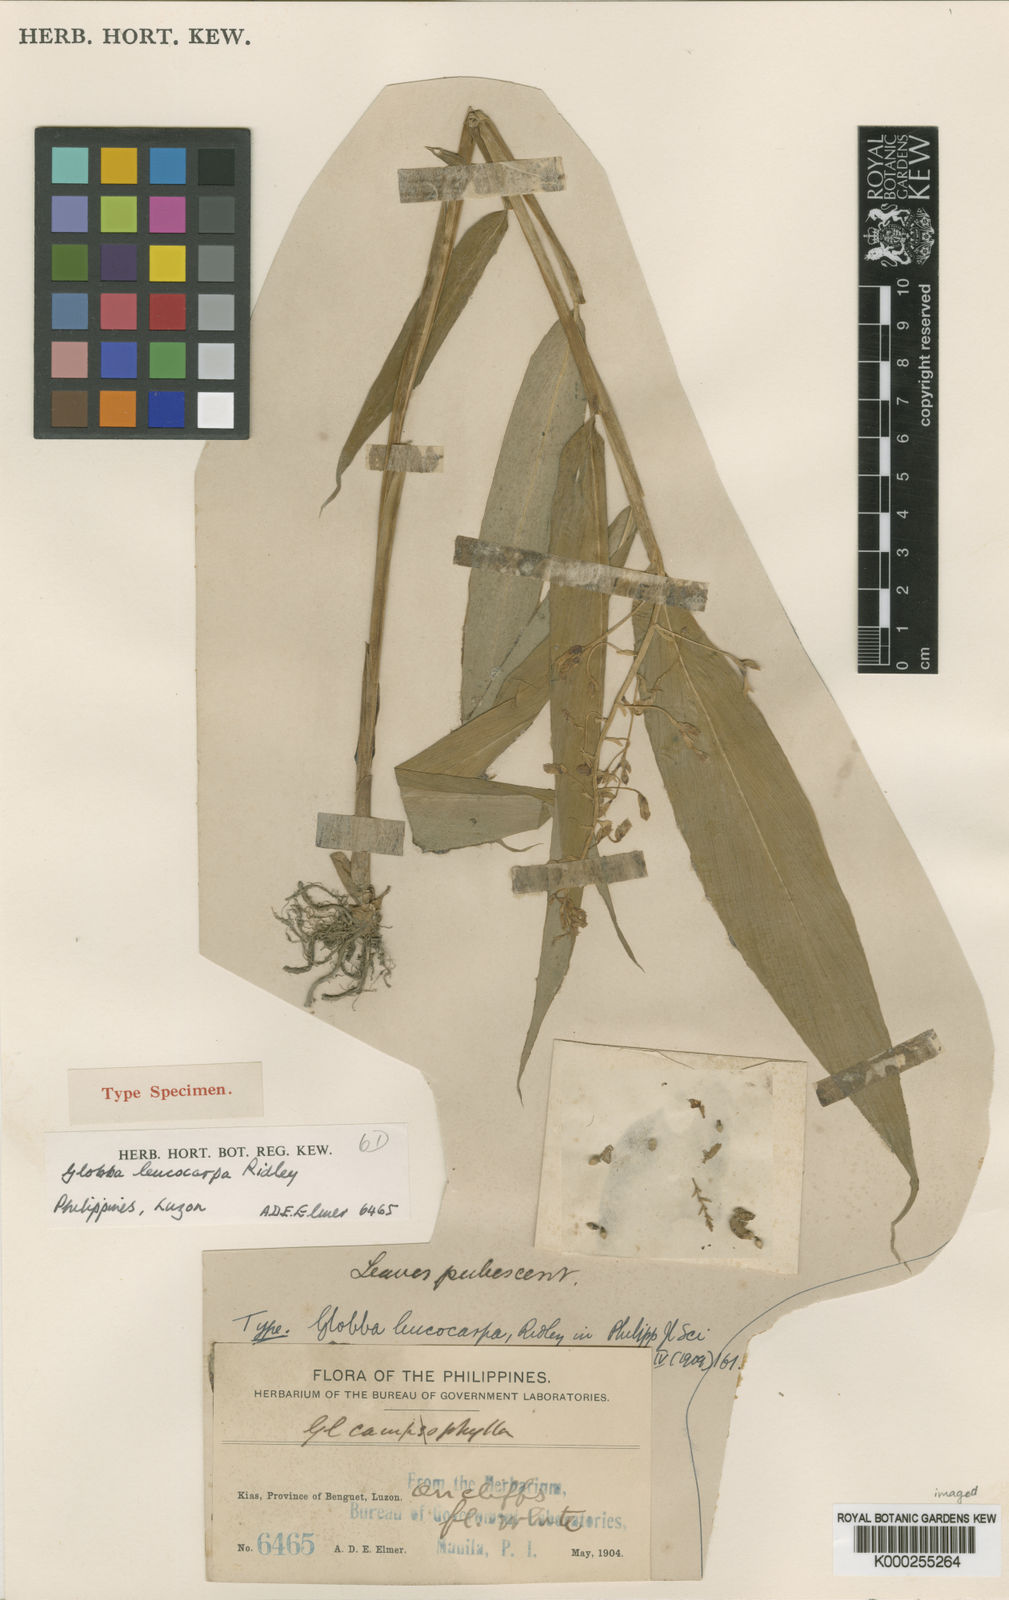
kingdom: Plantae
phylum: Tracheophyta
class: Liliopsida
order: Zingiberales
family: Zingiberaceae
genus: Globba
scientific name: Globba gracilis
